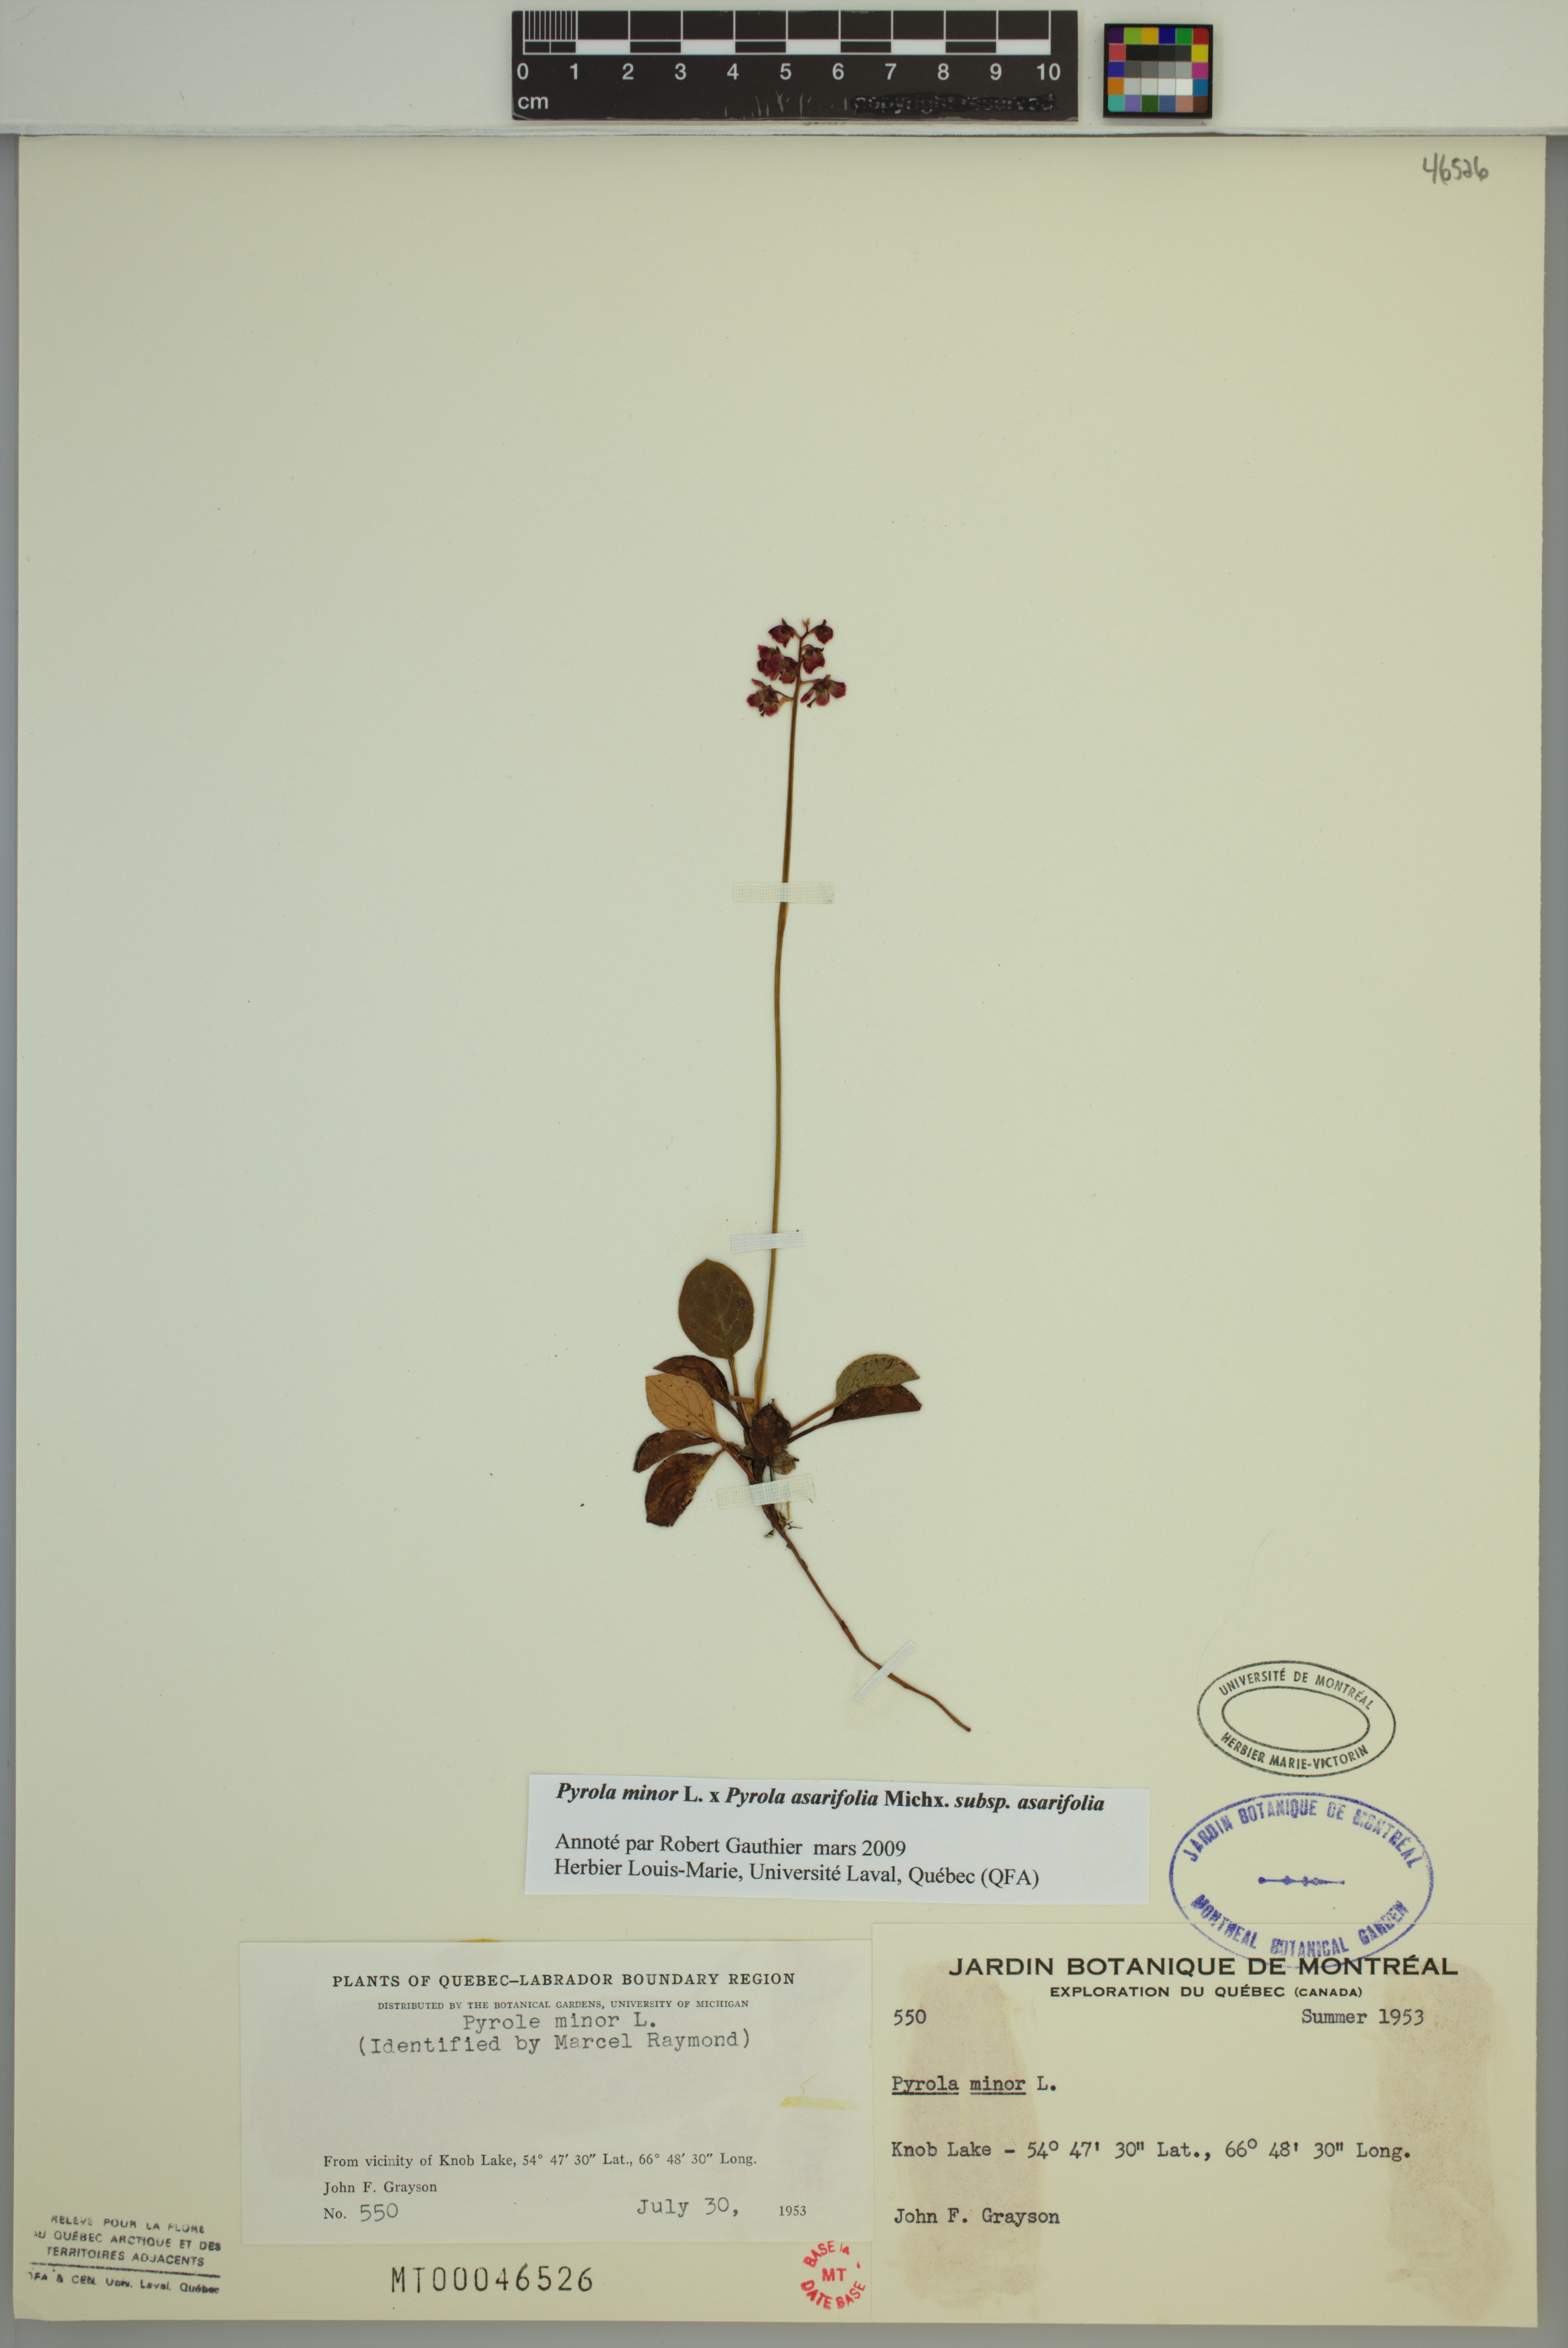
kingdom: Plantae
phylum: Tracheophyta
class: Magnoliopsida
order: Ericales
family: Ericaceae
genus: Pyrola
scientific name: Pyrola asarifolia
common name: Bog wintergreen
